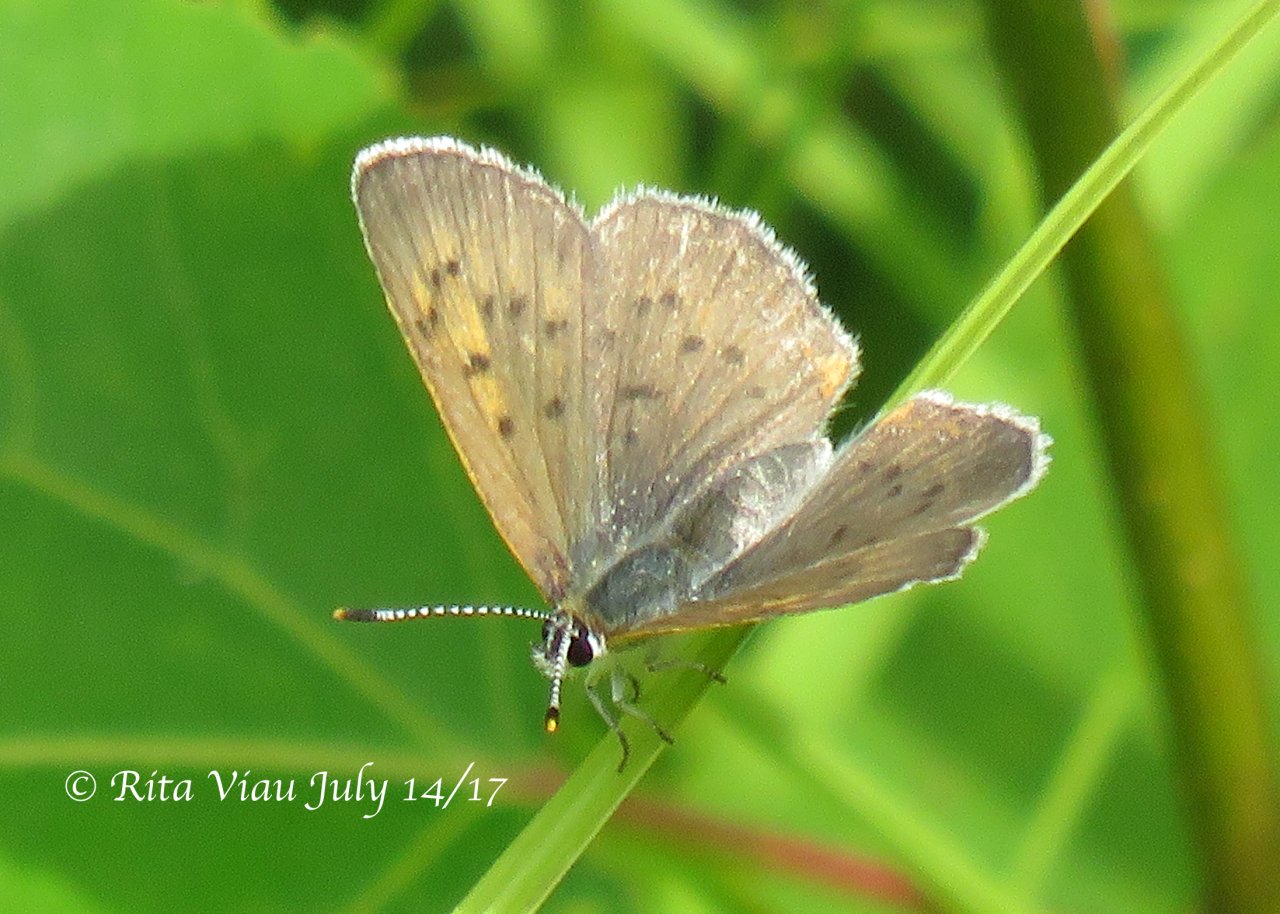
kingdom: Animalia
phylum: Arthropoda
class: Insecta
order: Lepidoptera
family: Sesiidae
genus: Sesia
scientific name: Sesia Lycaena epixanthe
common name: Bog Copper
